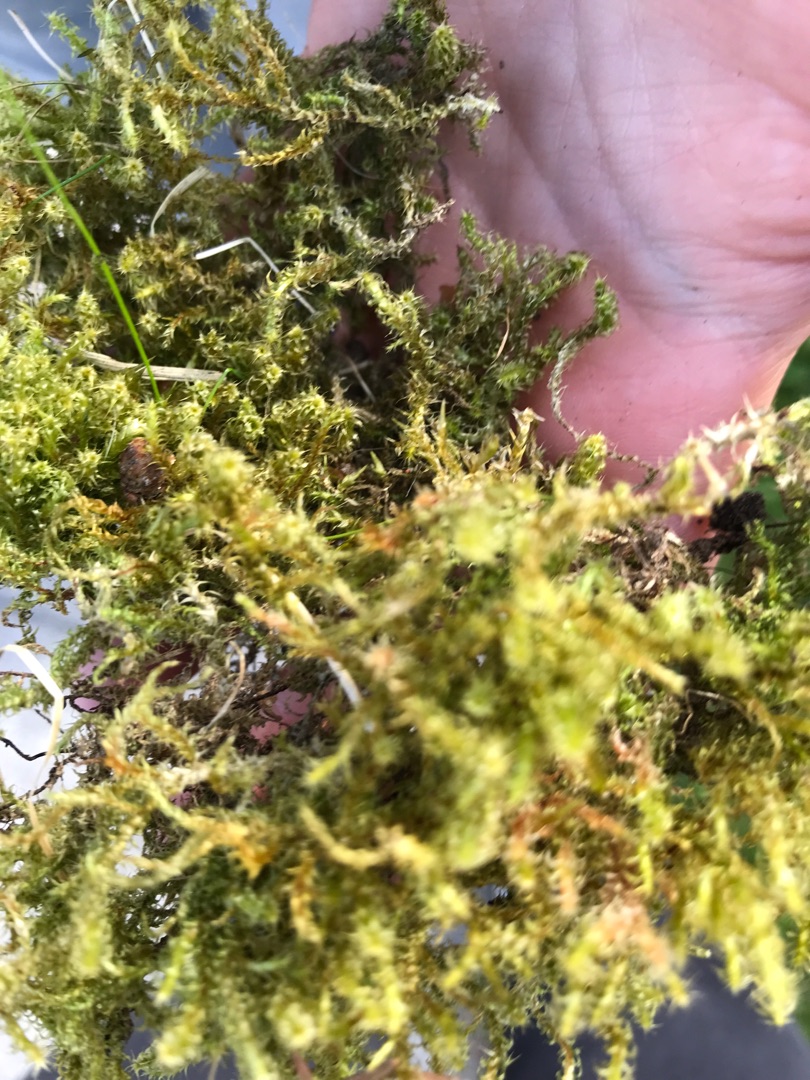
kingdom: Plantae
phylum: Bryophyta
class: Bryopsida
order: Hypnales
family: Hylocomiaceae
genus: Rhytidiadelphus
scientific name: Rhytidiadelphus squarrosus
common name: Plæne-kransemos
